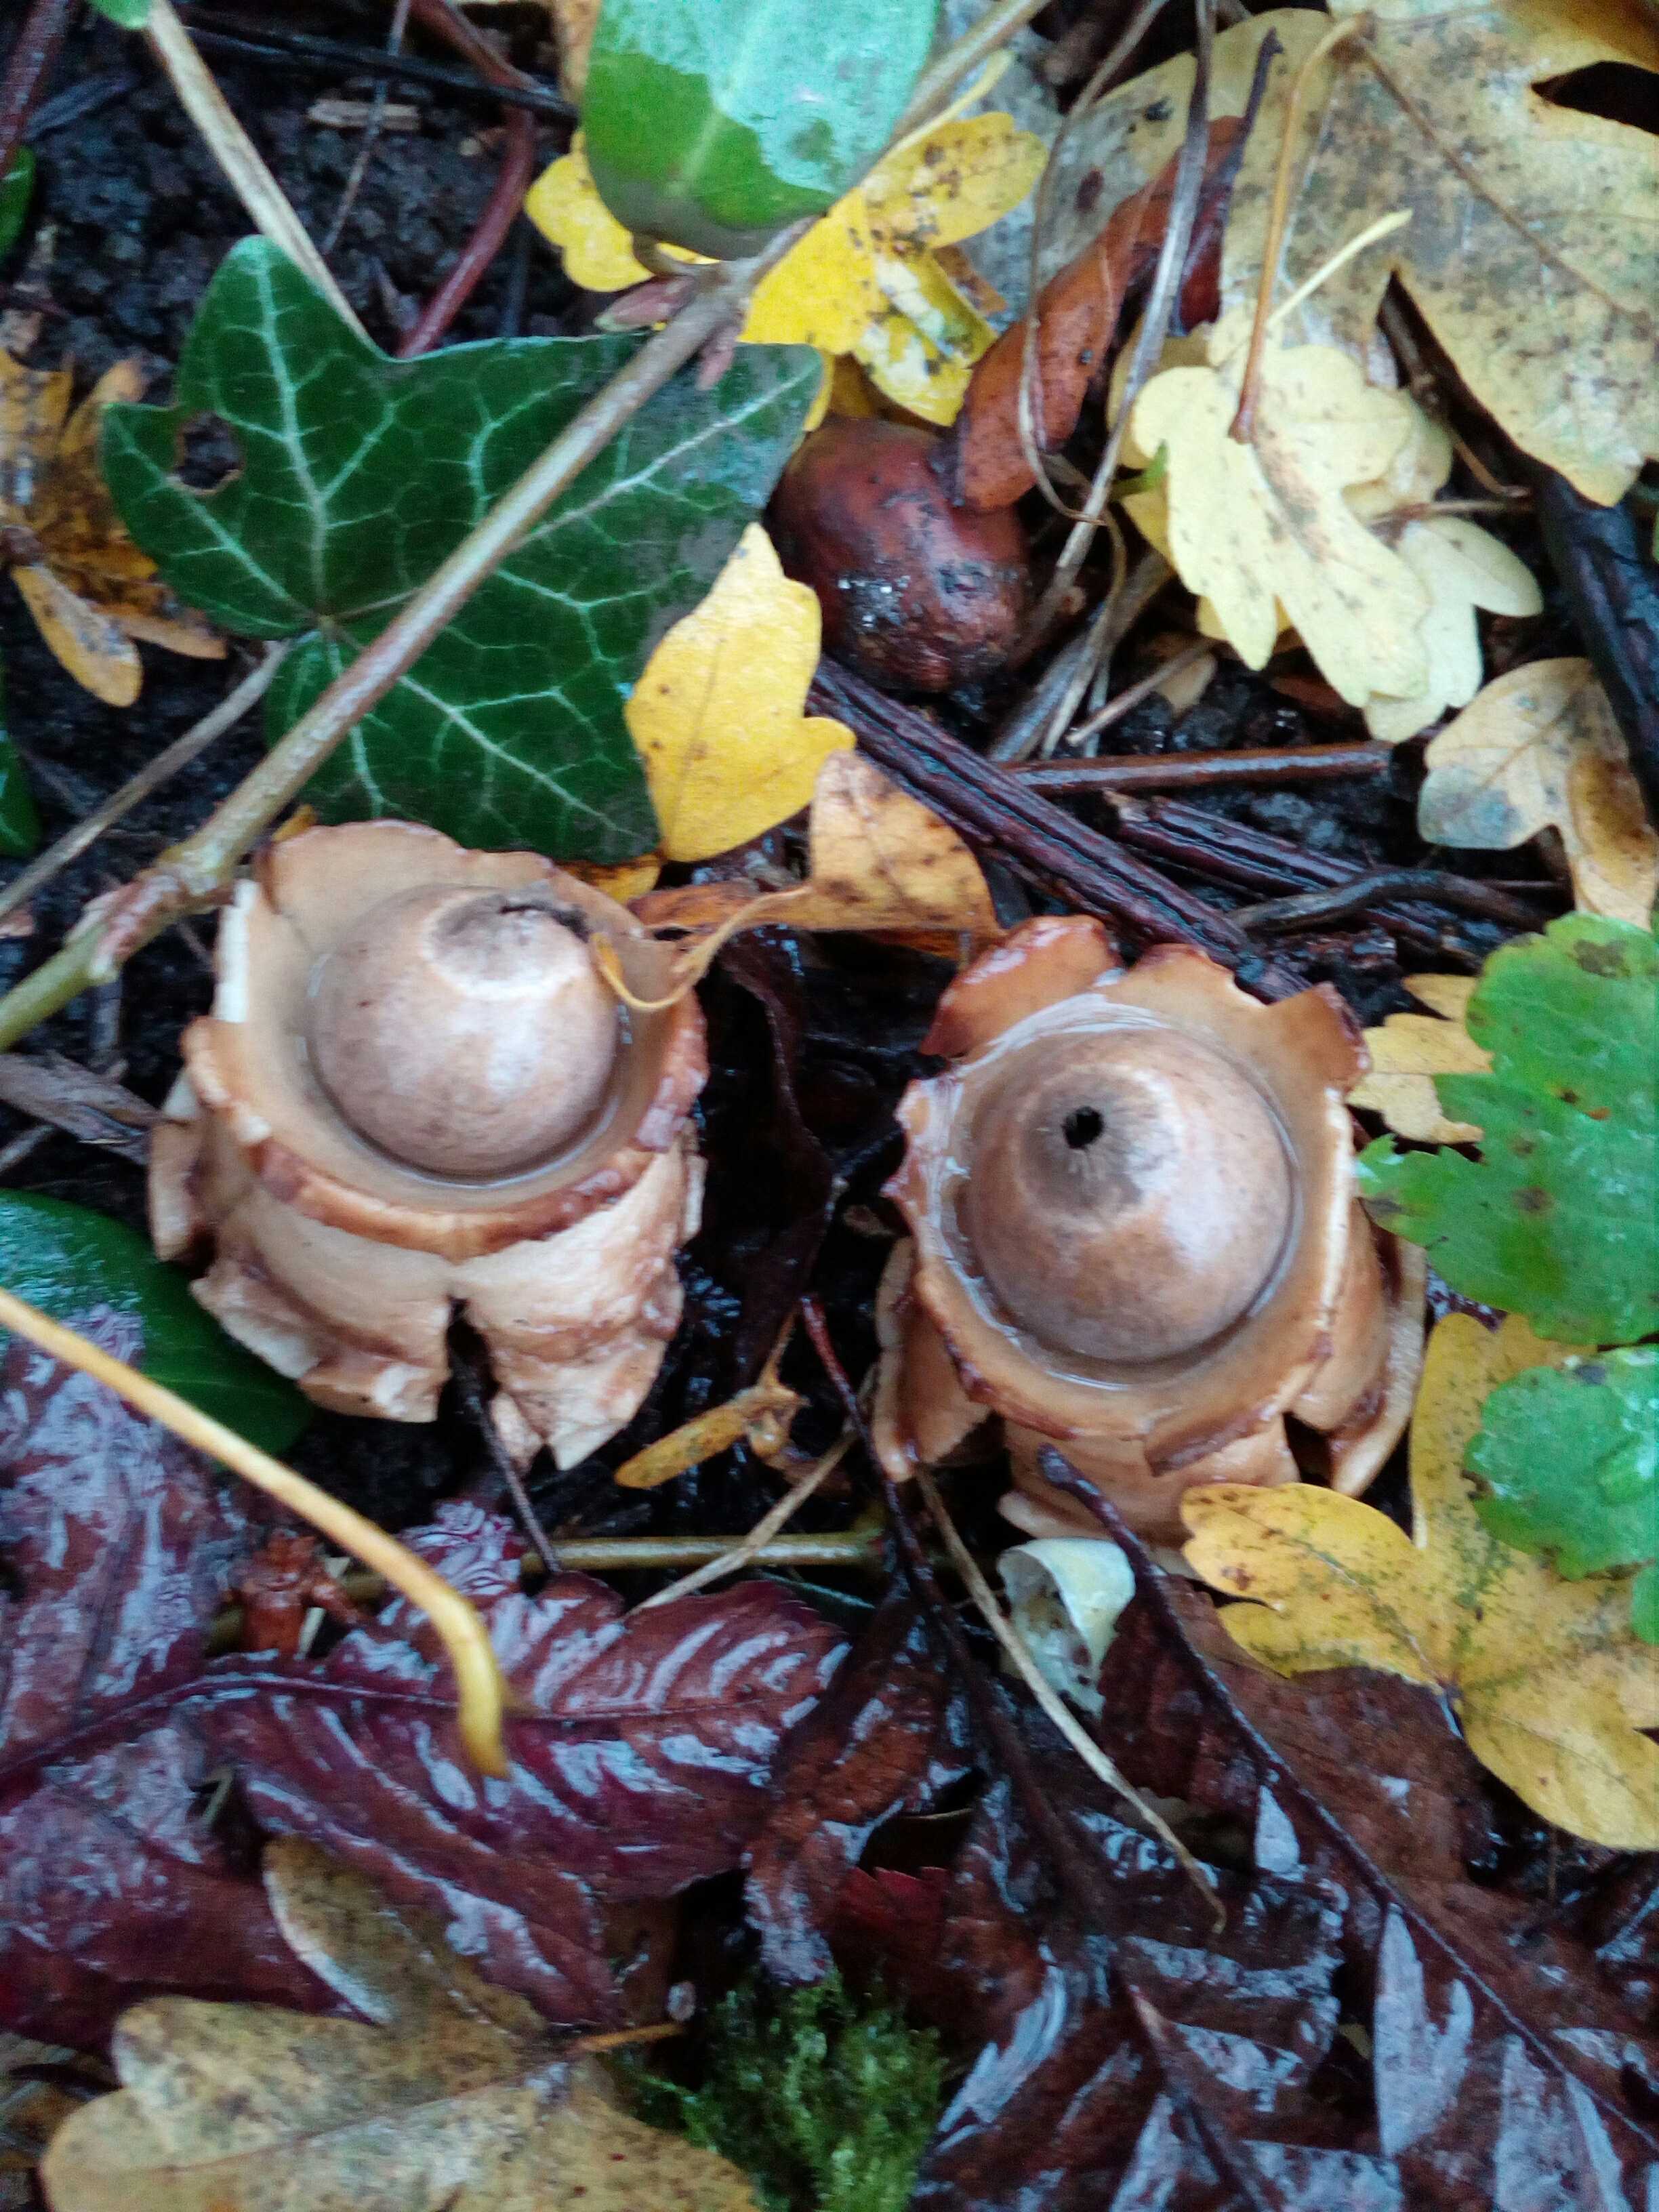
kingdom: Fungi
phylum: Basidiomycota
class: Agaricomycetes
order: Geastrales
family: Geastraceae
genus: Geastrum
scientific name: Geastrum michelianum
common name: kødet stjernebold
